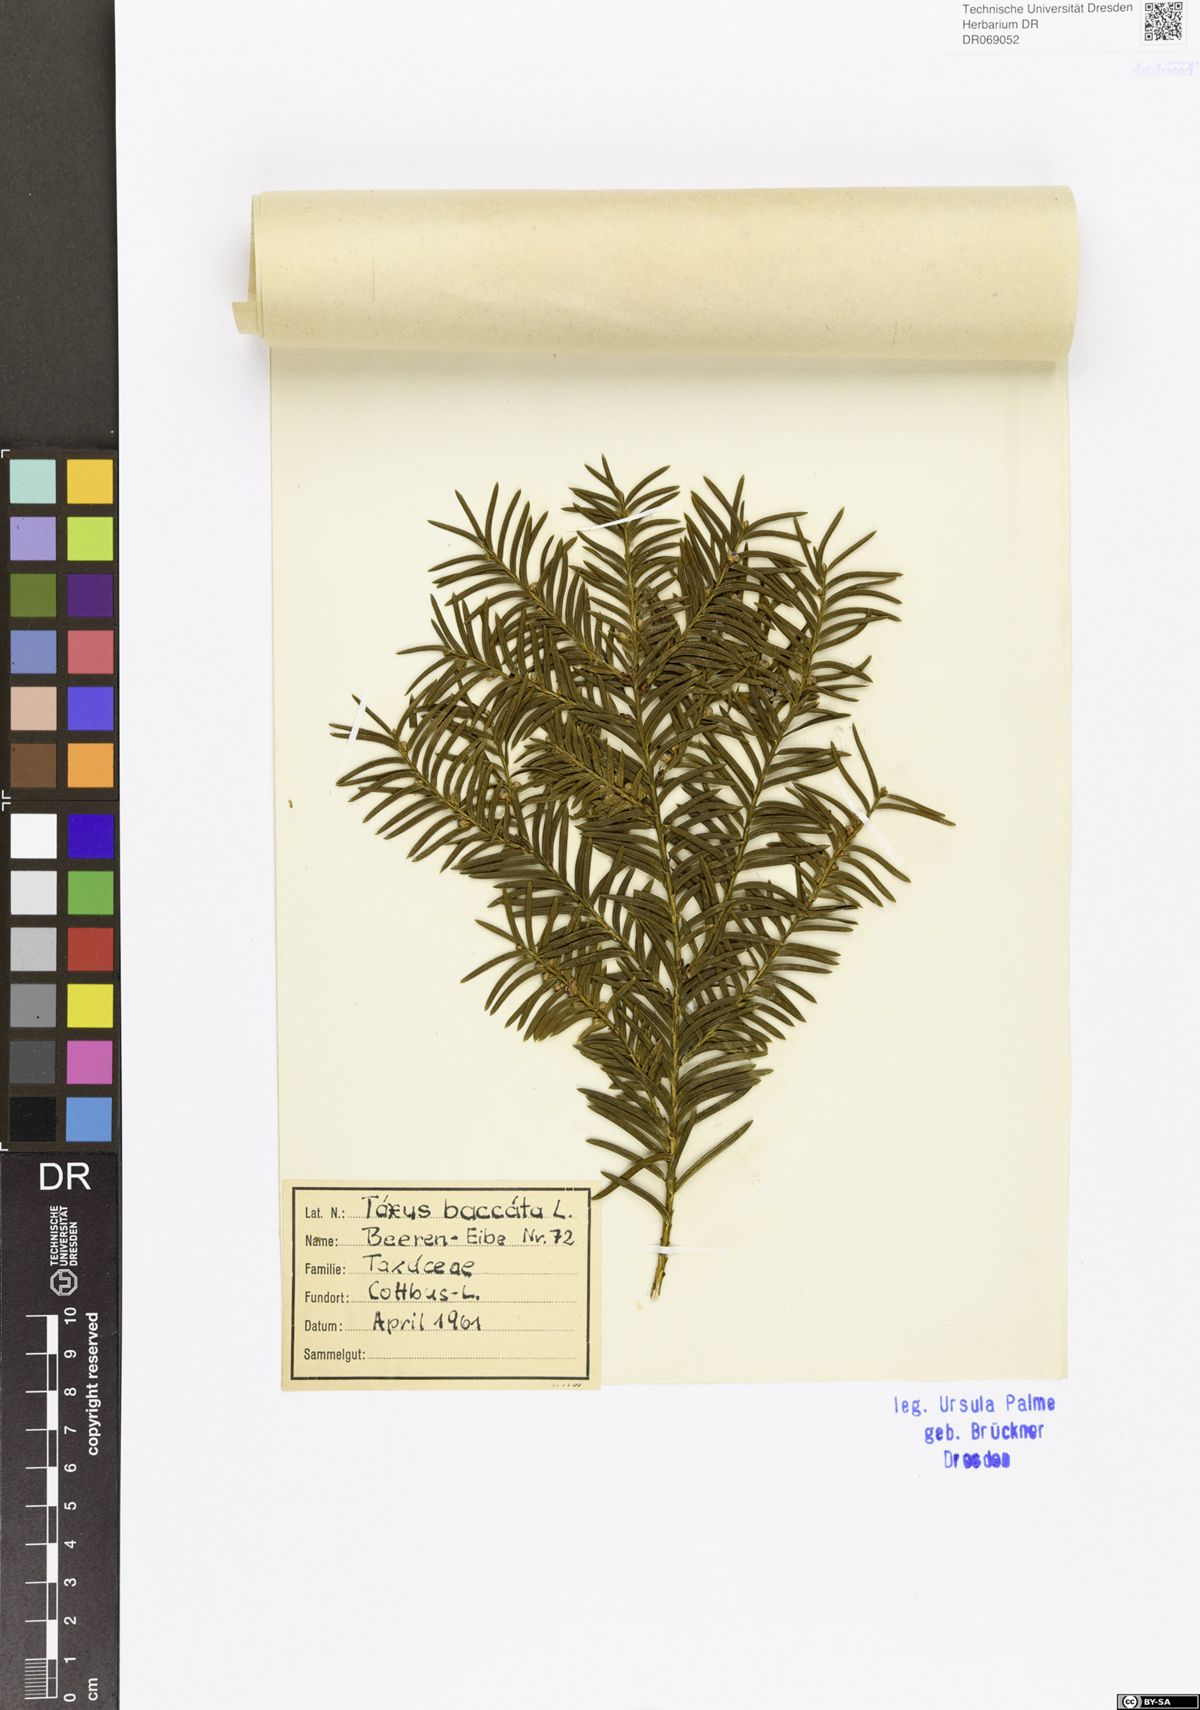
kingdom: Plantae
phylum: Tracheophyta
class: Pinopsida
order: Pinales
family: Taxaceae
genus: Taxus
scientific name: Taxus baccata
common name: Yew
